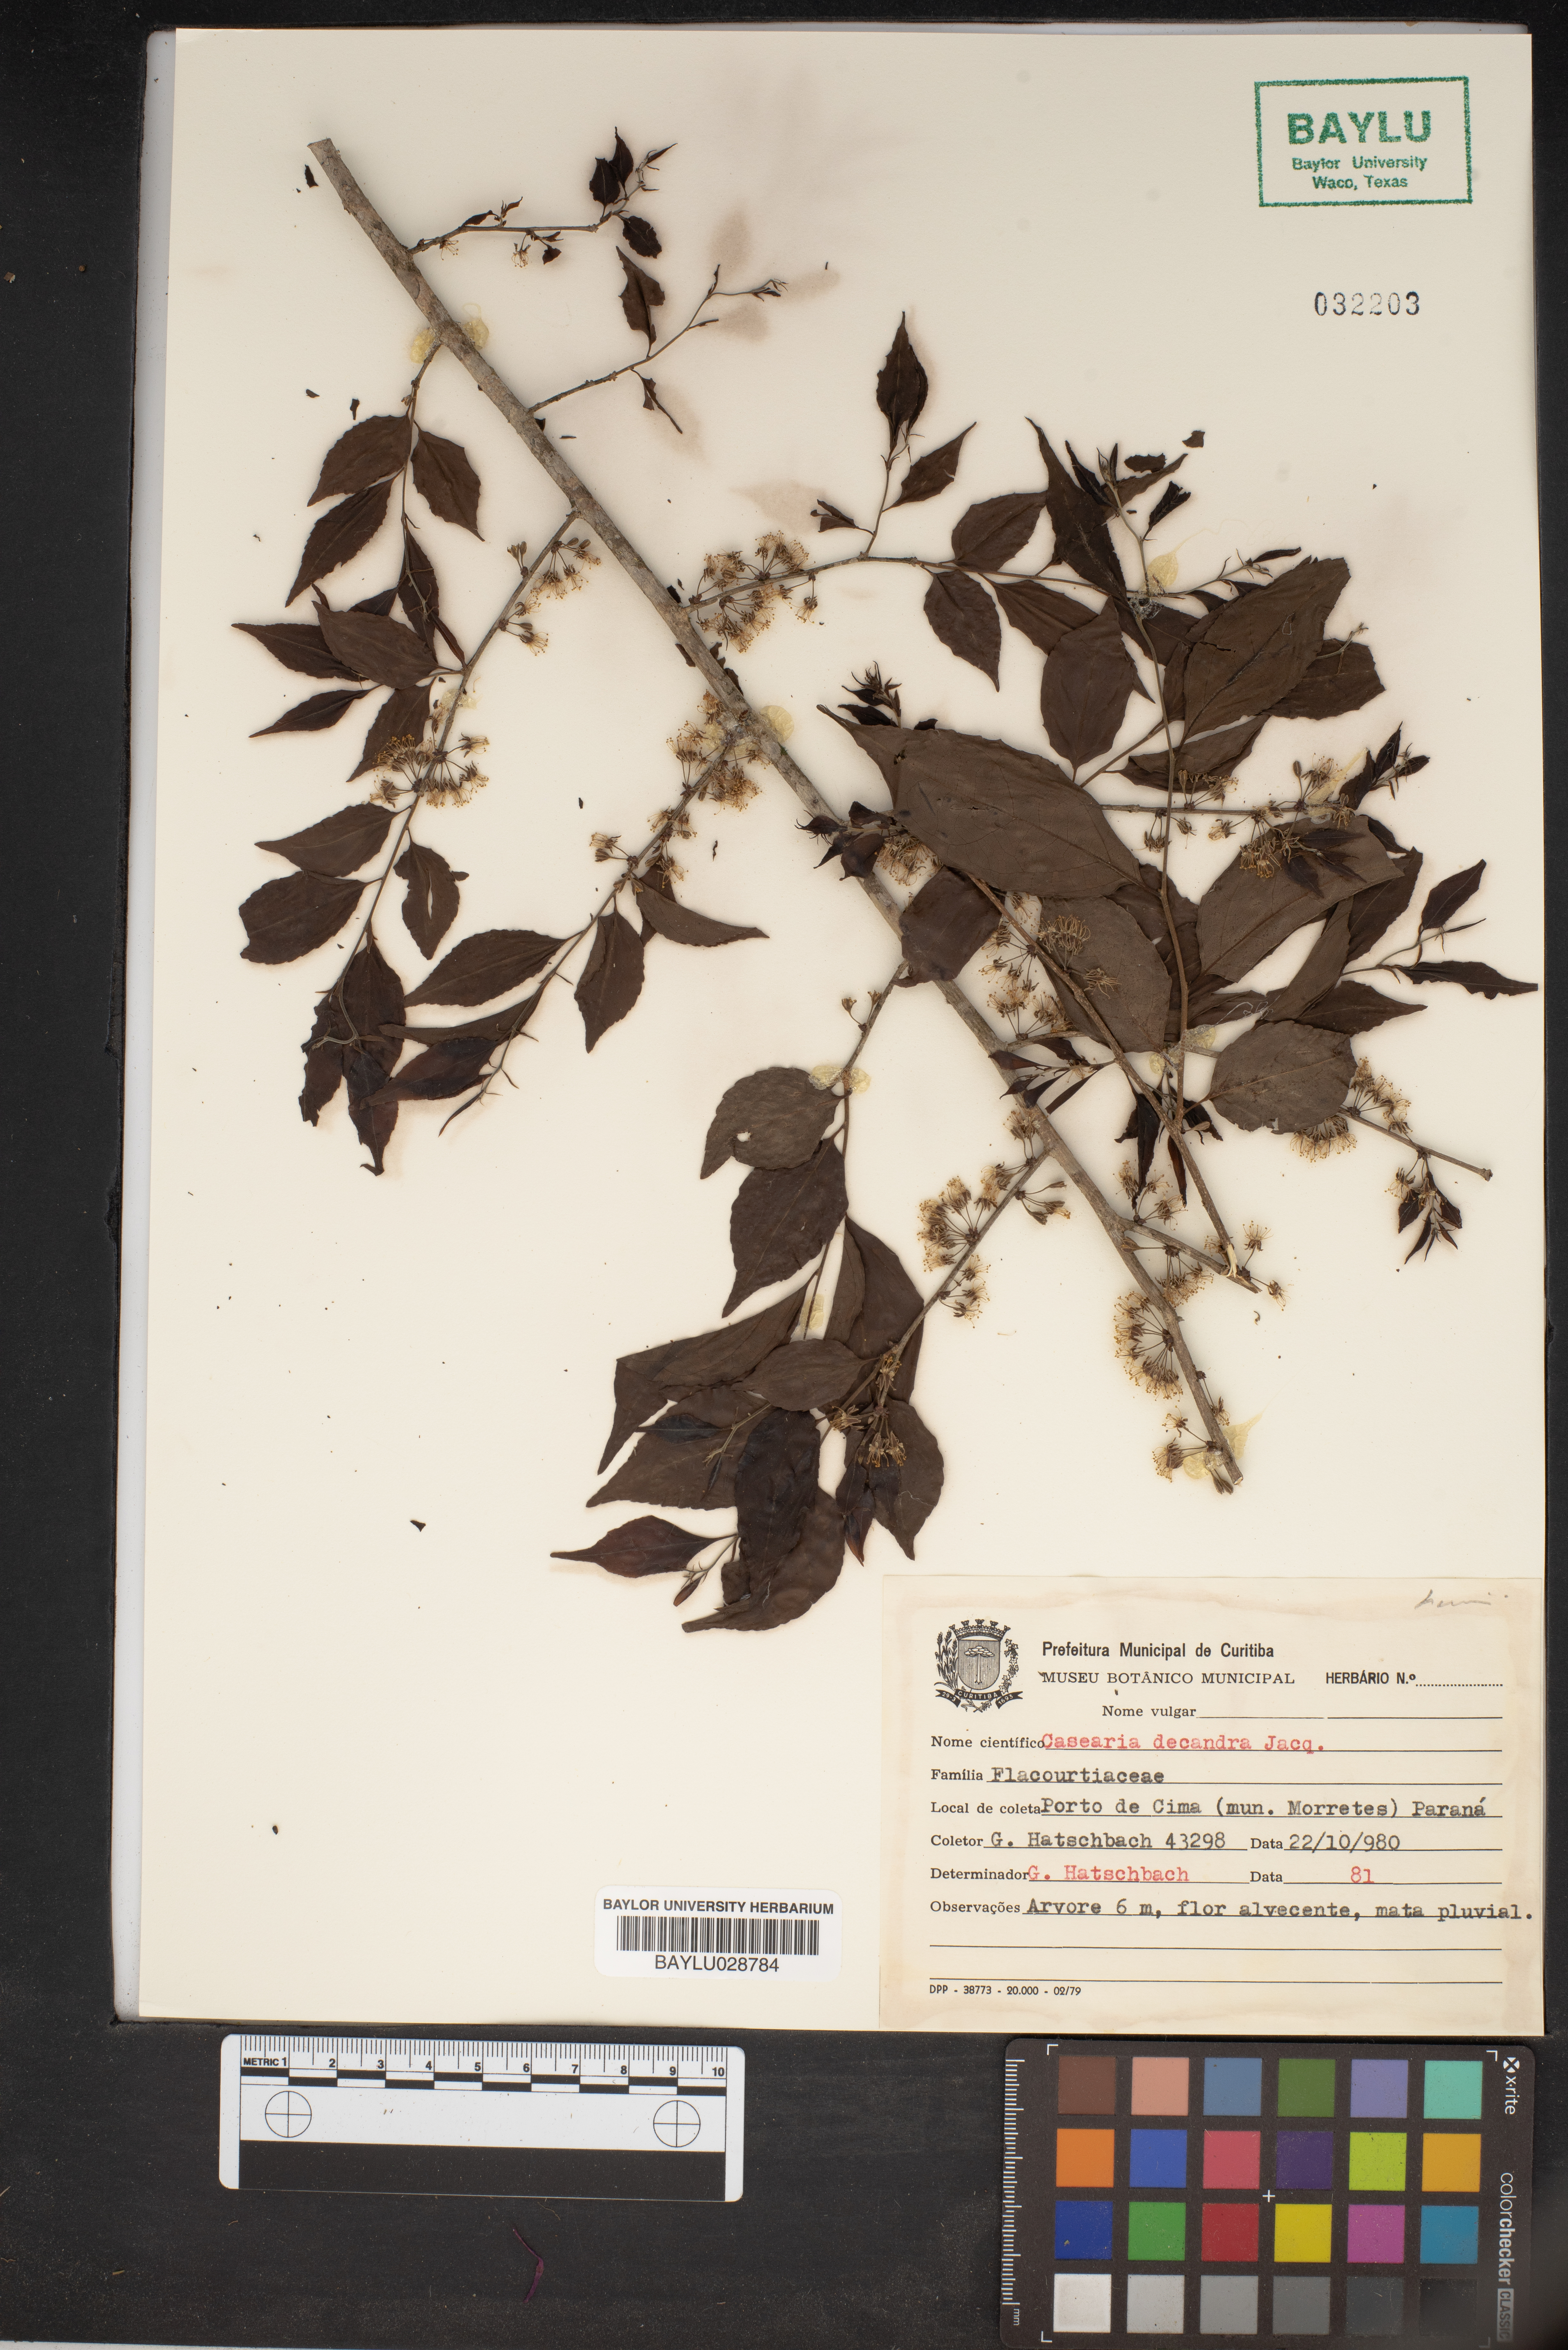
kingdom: Plantae
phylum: Tracheophyta
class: Magnoliopsida
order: Malpighiales
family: Salicaceae
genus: Casearia
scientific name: Casearia decandra
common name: Crack open
